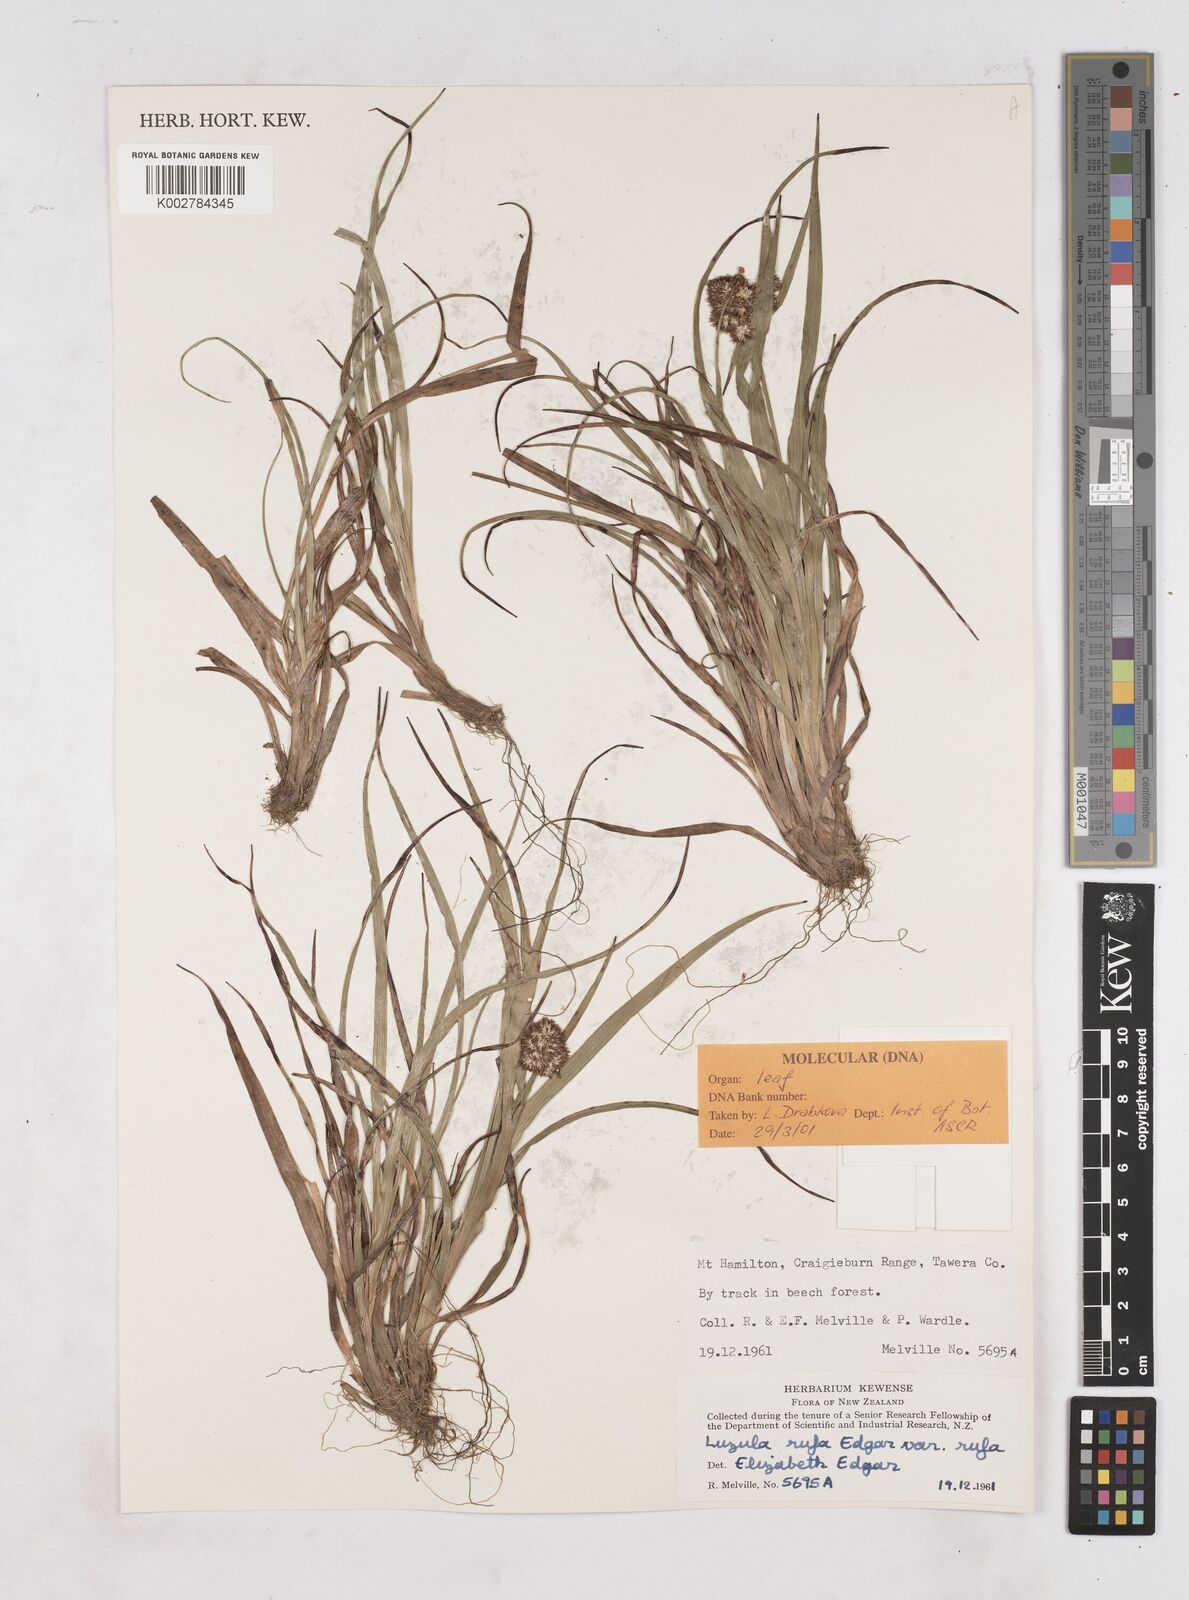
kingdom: Plantae
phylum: Tracheophyta
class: Liliopsida
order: Poales
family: Juncaceae
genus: Luzula
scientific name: Luzula rufa
